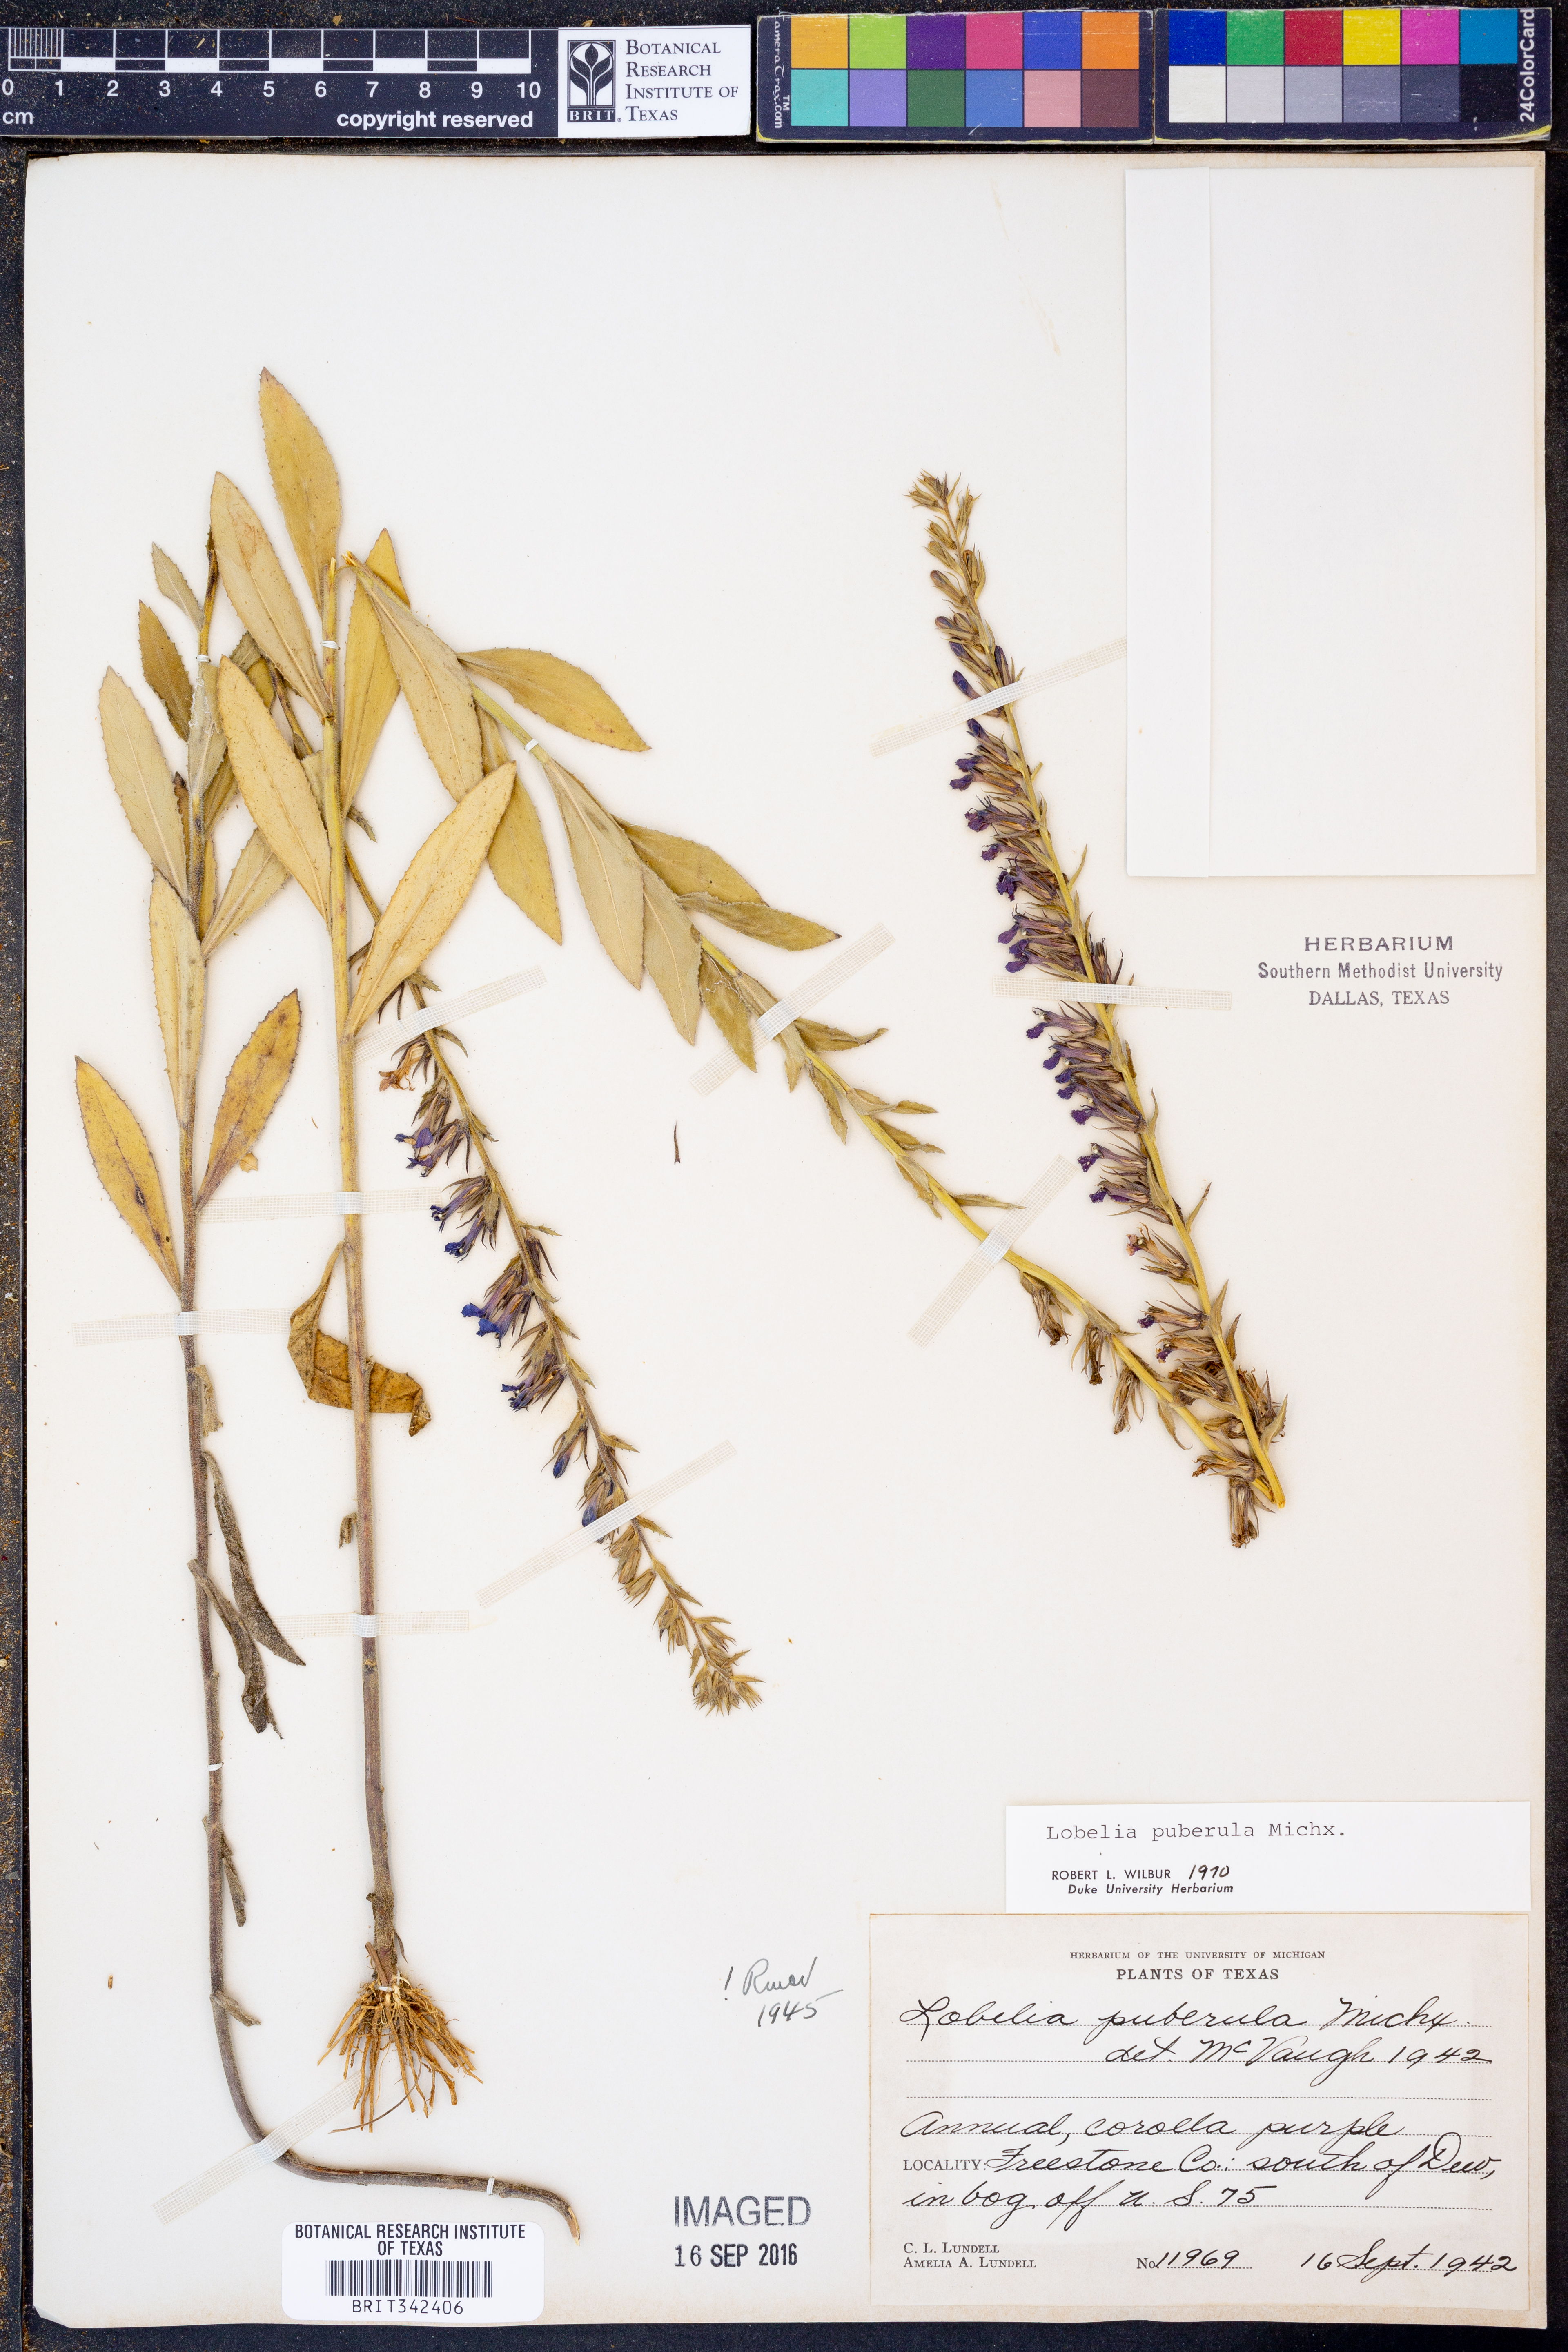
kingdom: Plantae
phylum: Tracheophyta
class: Magnoliopsida
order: Asterales
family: Campanulaceae
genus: Lobelia
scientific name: Lobelia puberula
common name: Purple dewdrop
